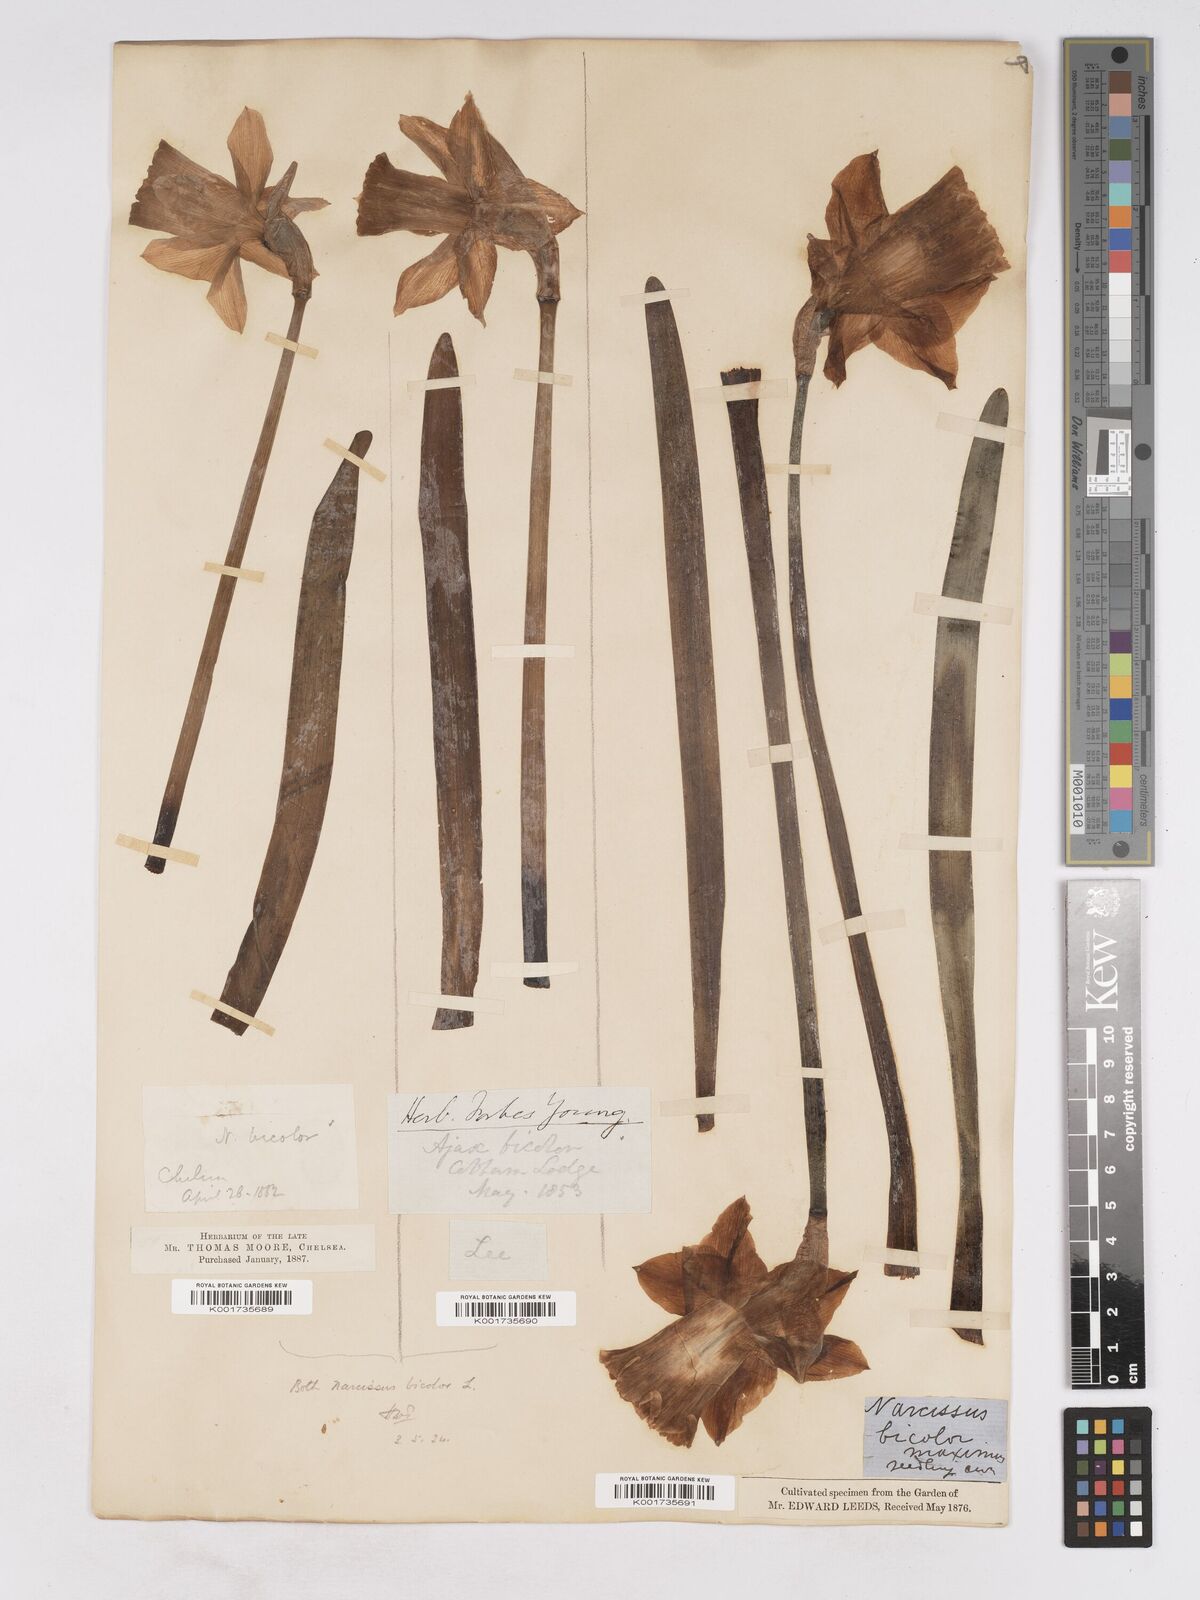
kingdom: Plantae
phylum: Tracheophyta
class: Liliopsida
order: Asparagales
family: Amaryllidaceae
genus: Narcissus
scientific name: Narcissus bicolor
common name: Two-color daffodil
